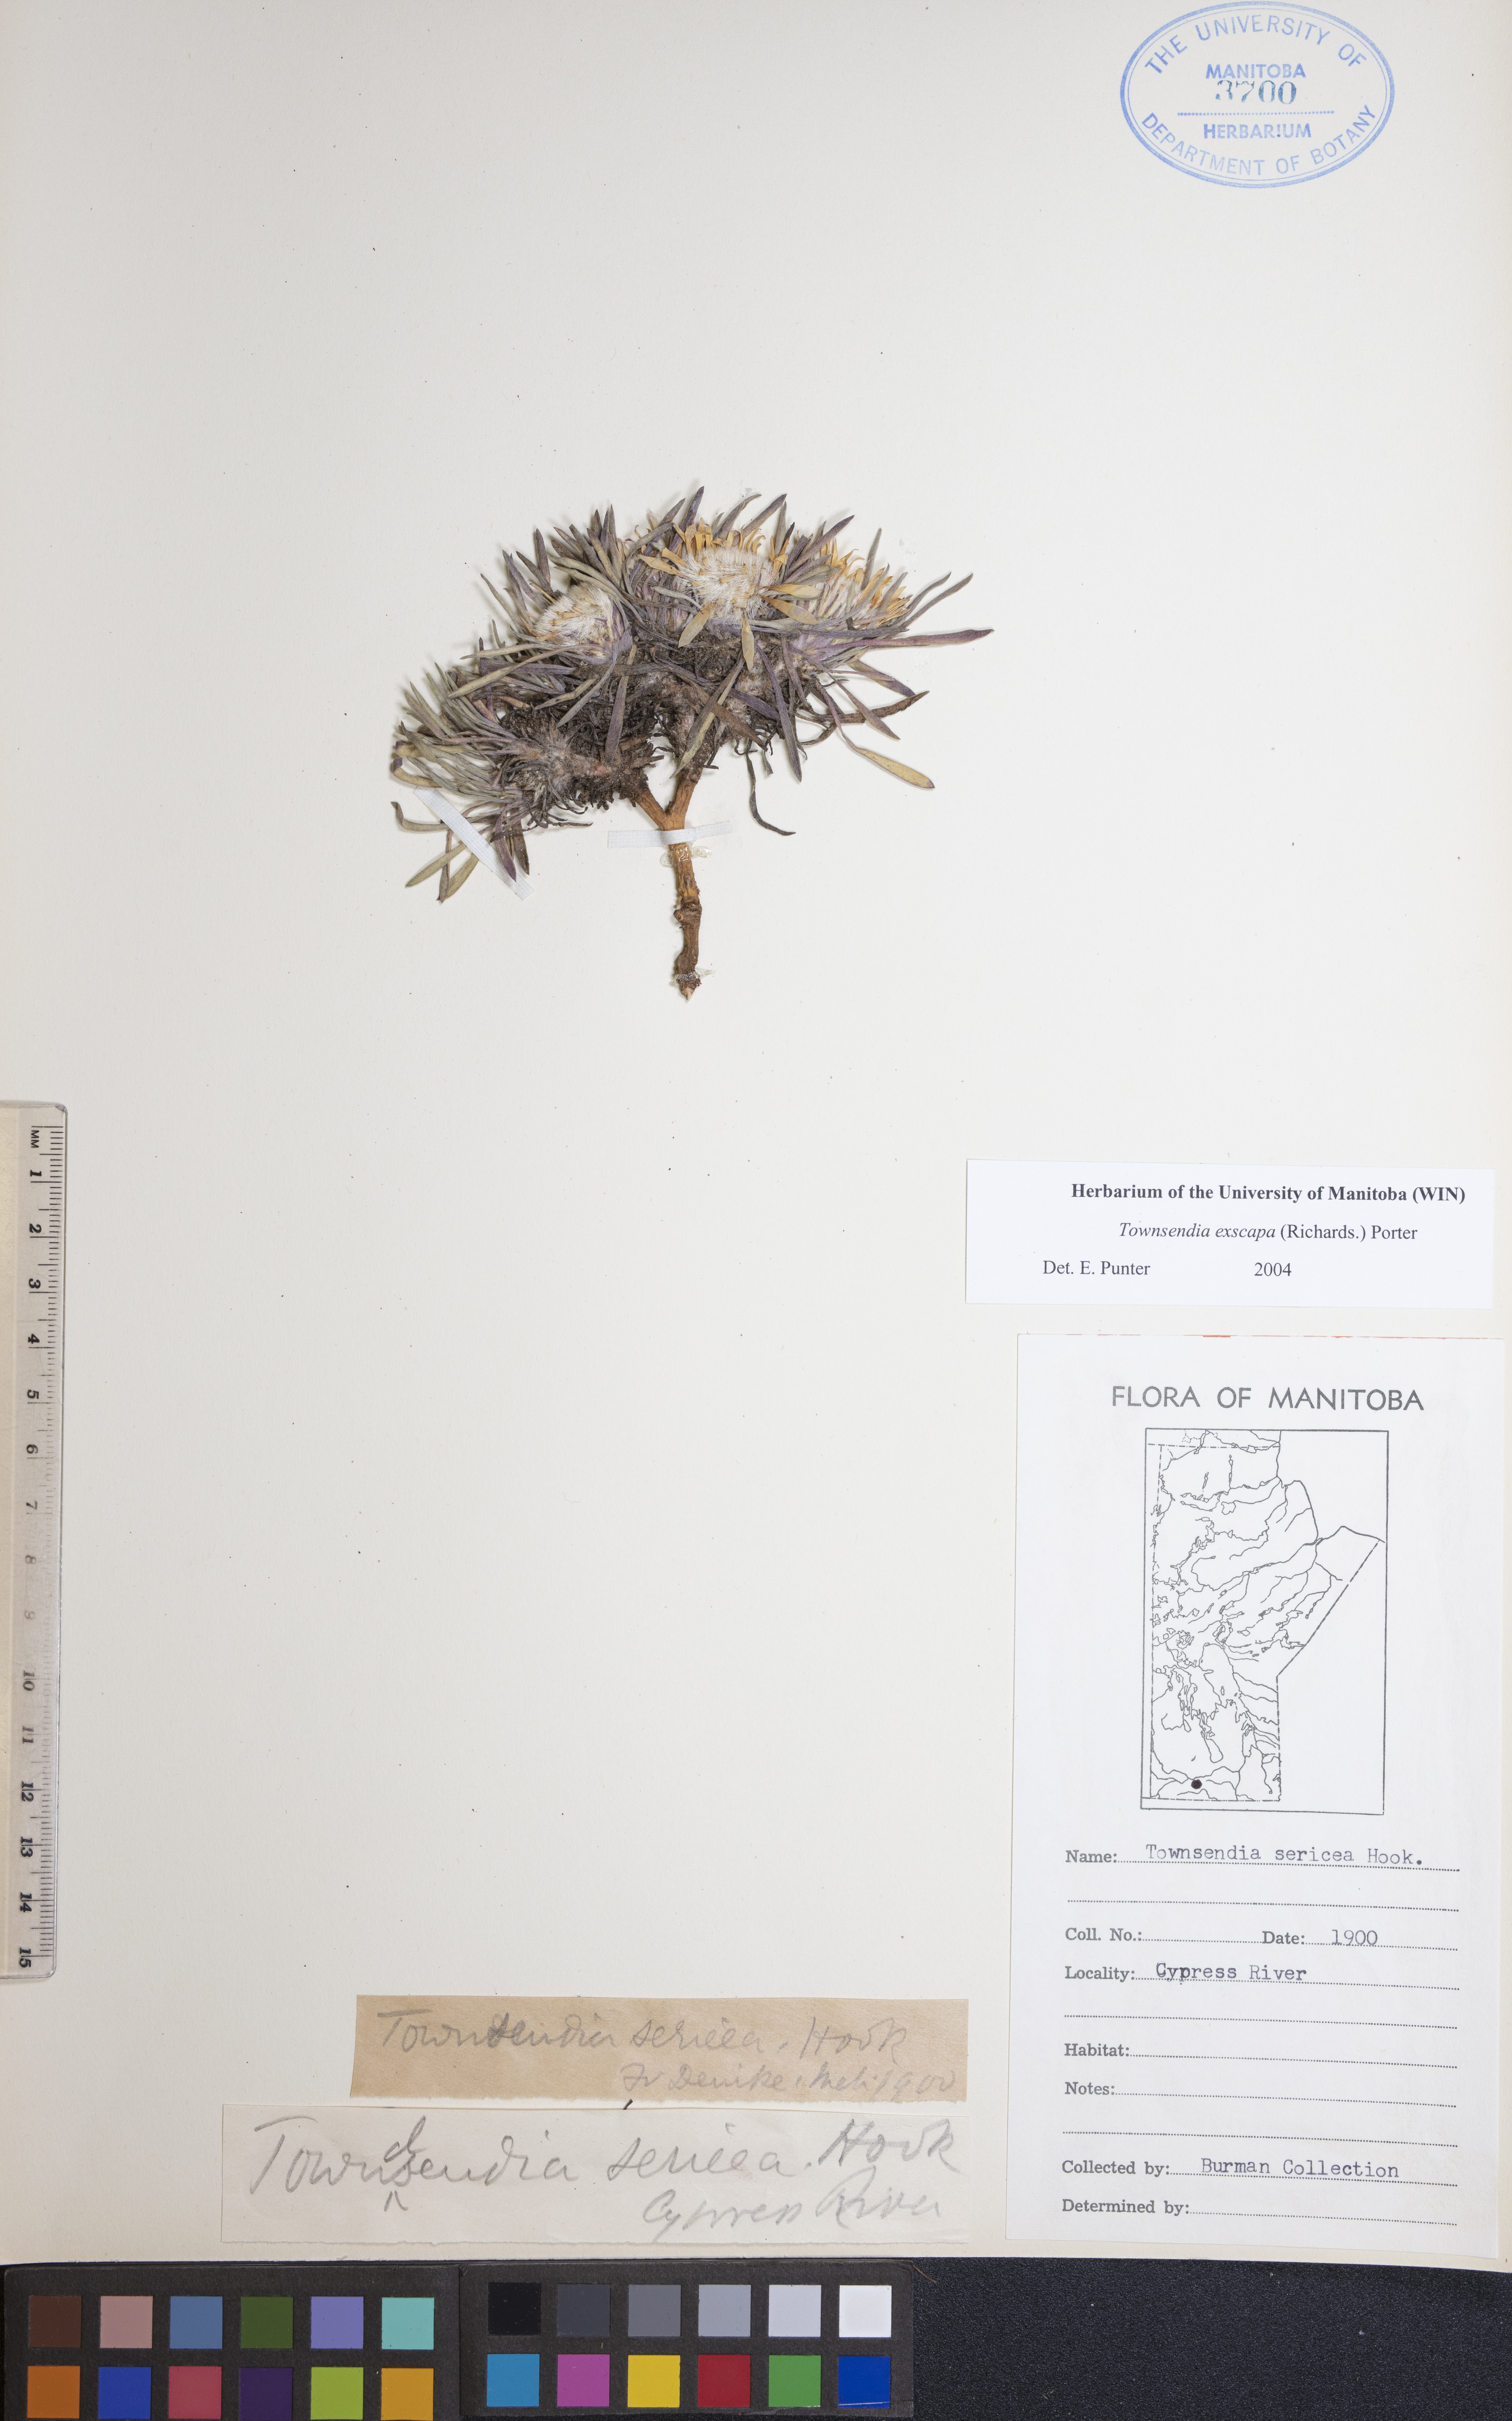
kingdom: Plantae
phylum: Tracheophyta
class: Magnoliopsida
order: Asterales
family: Asteraceae
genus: Townsendia
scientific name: Townsendia exscapa
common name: Dwarf townsendia
